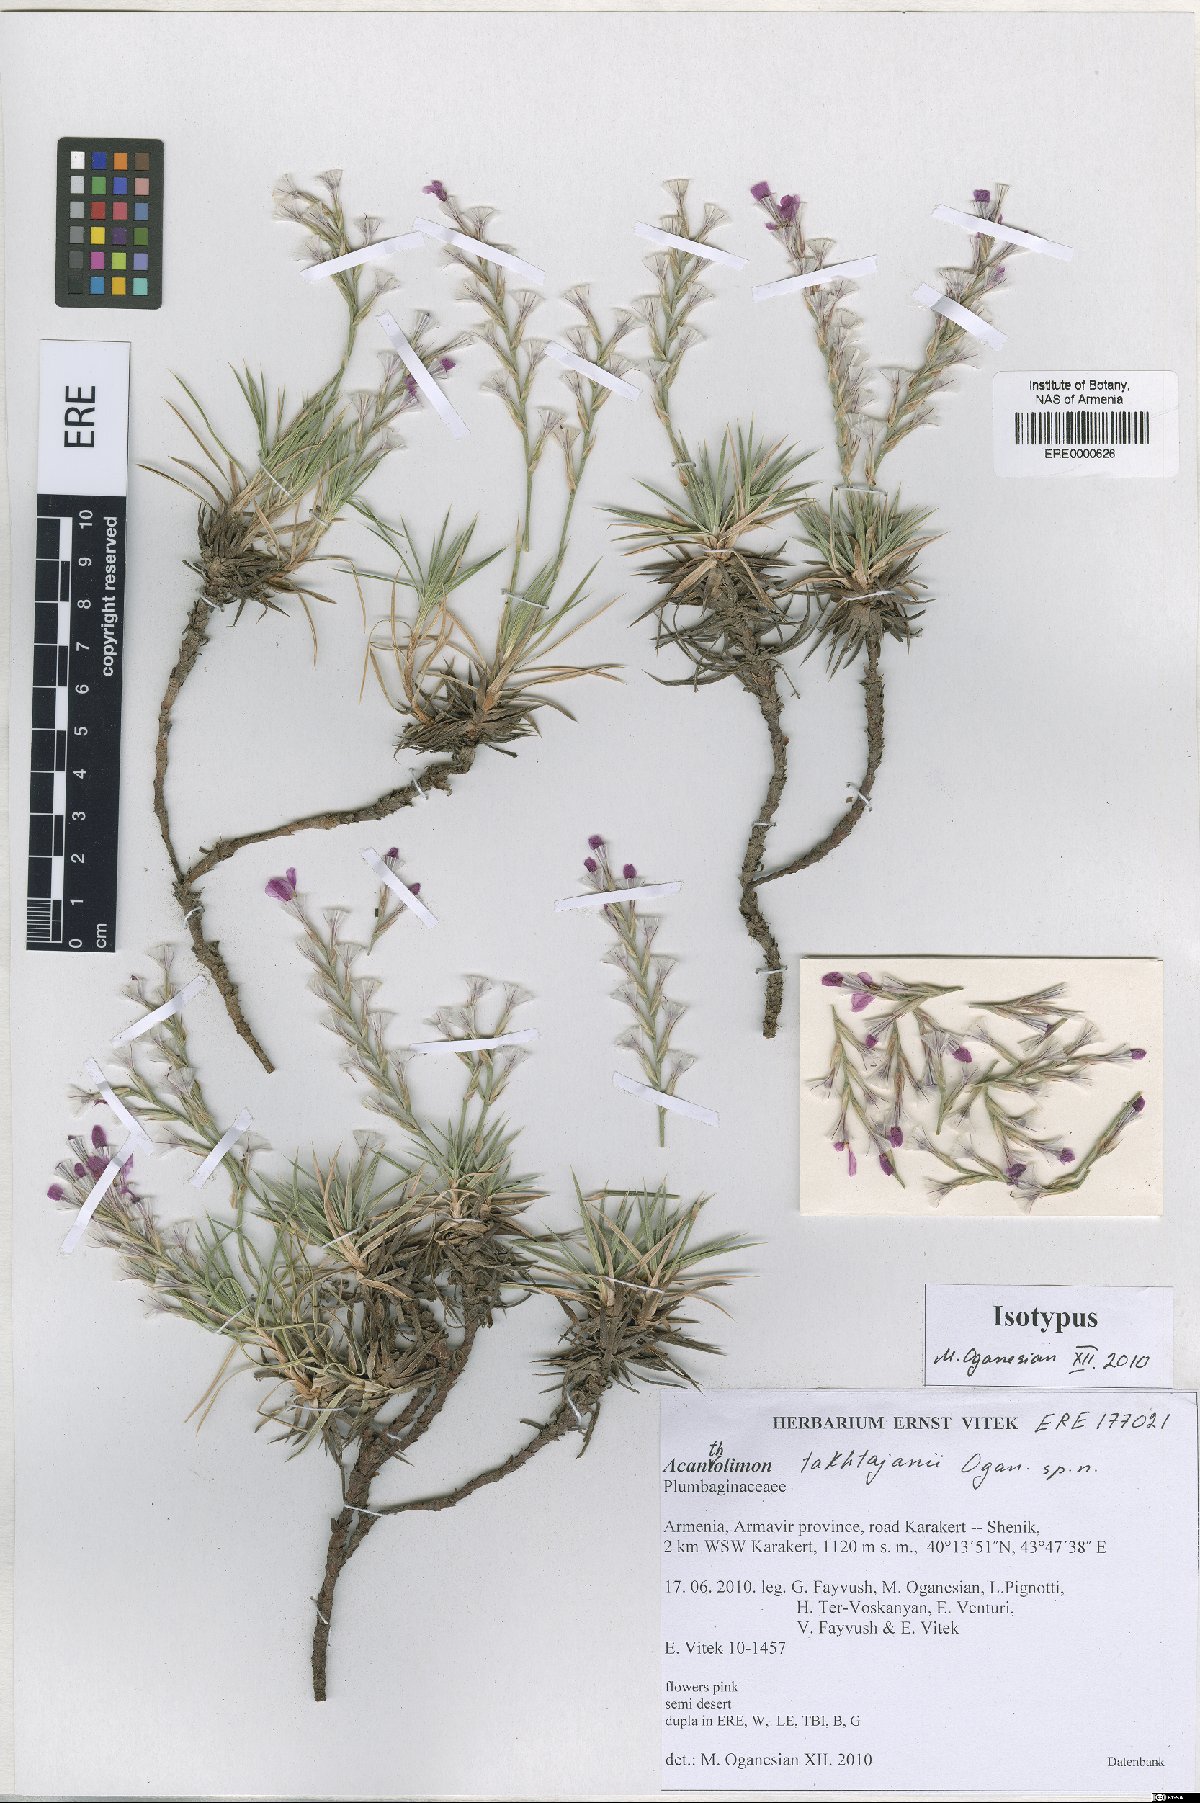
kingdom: Plantae
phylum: Tracheophyta
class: Magnoliopsida
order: Caryophyllales
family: Plumbaginaceae
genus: Acantholimon
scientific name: Acantholimon takhtajanii
